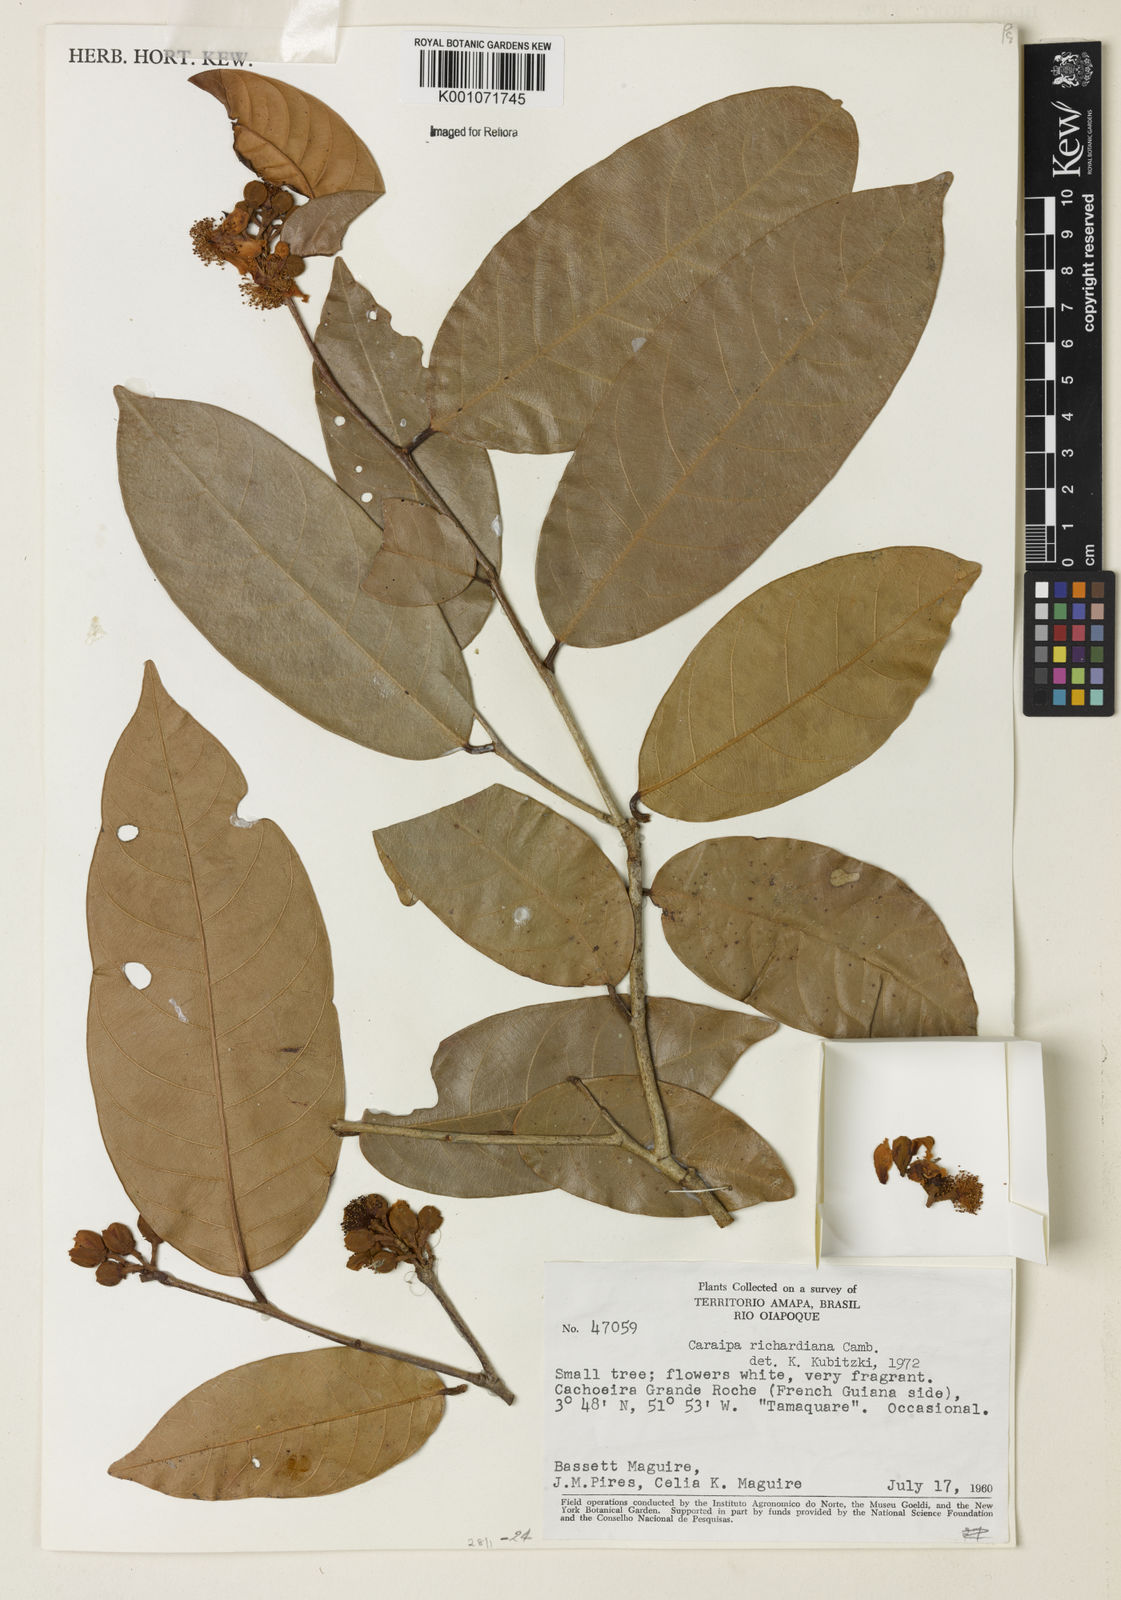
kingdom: Plantae
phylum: Tracheophyta
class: Magnoliopsida
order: Malpighiales
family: Calophyllaceae
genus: Caraipa
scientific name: Caraipa richardiana
